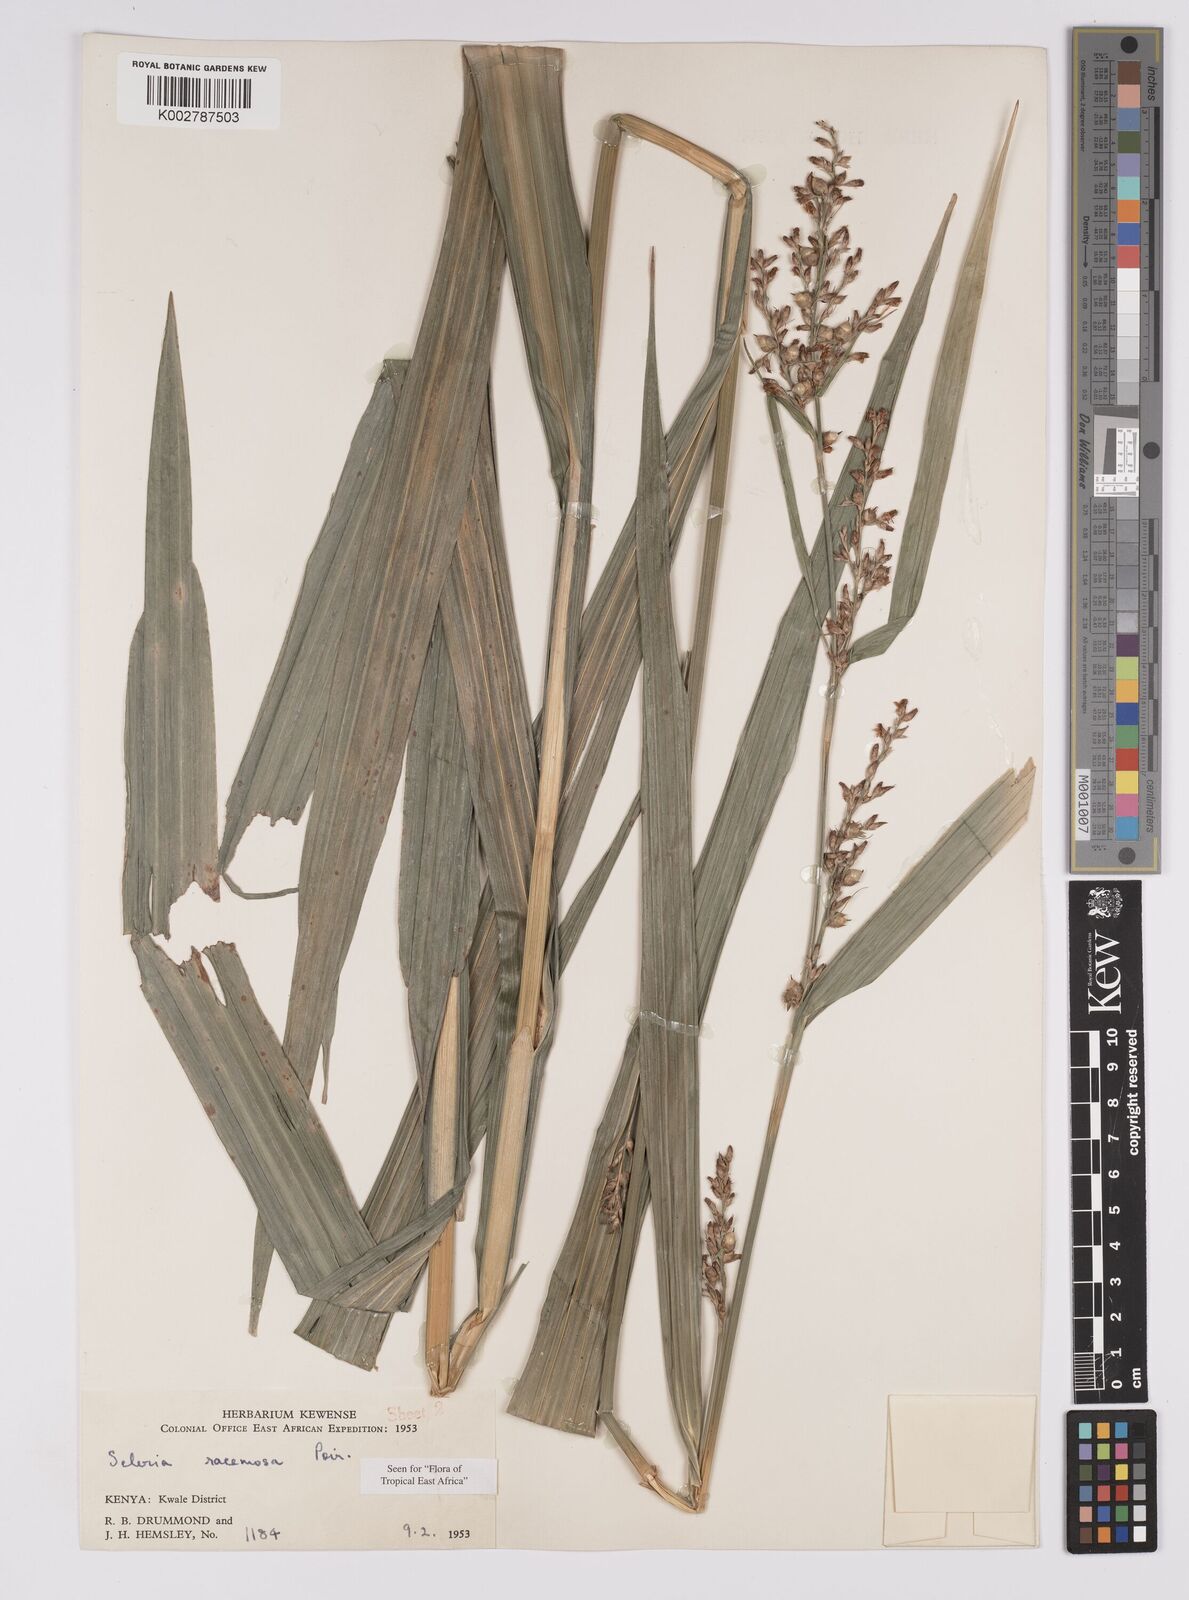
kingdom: Plantae
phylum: Tracheophyta
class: Liliopsida
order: Poales
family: Cyperaceae
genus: Scleria
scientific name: Scleria racemosa
